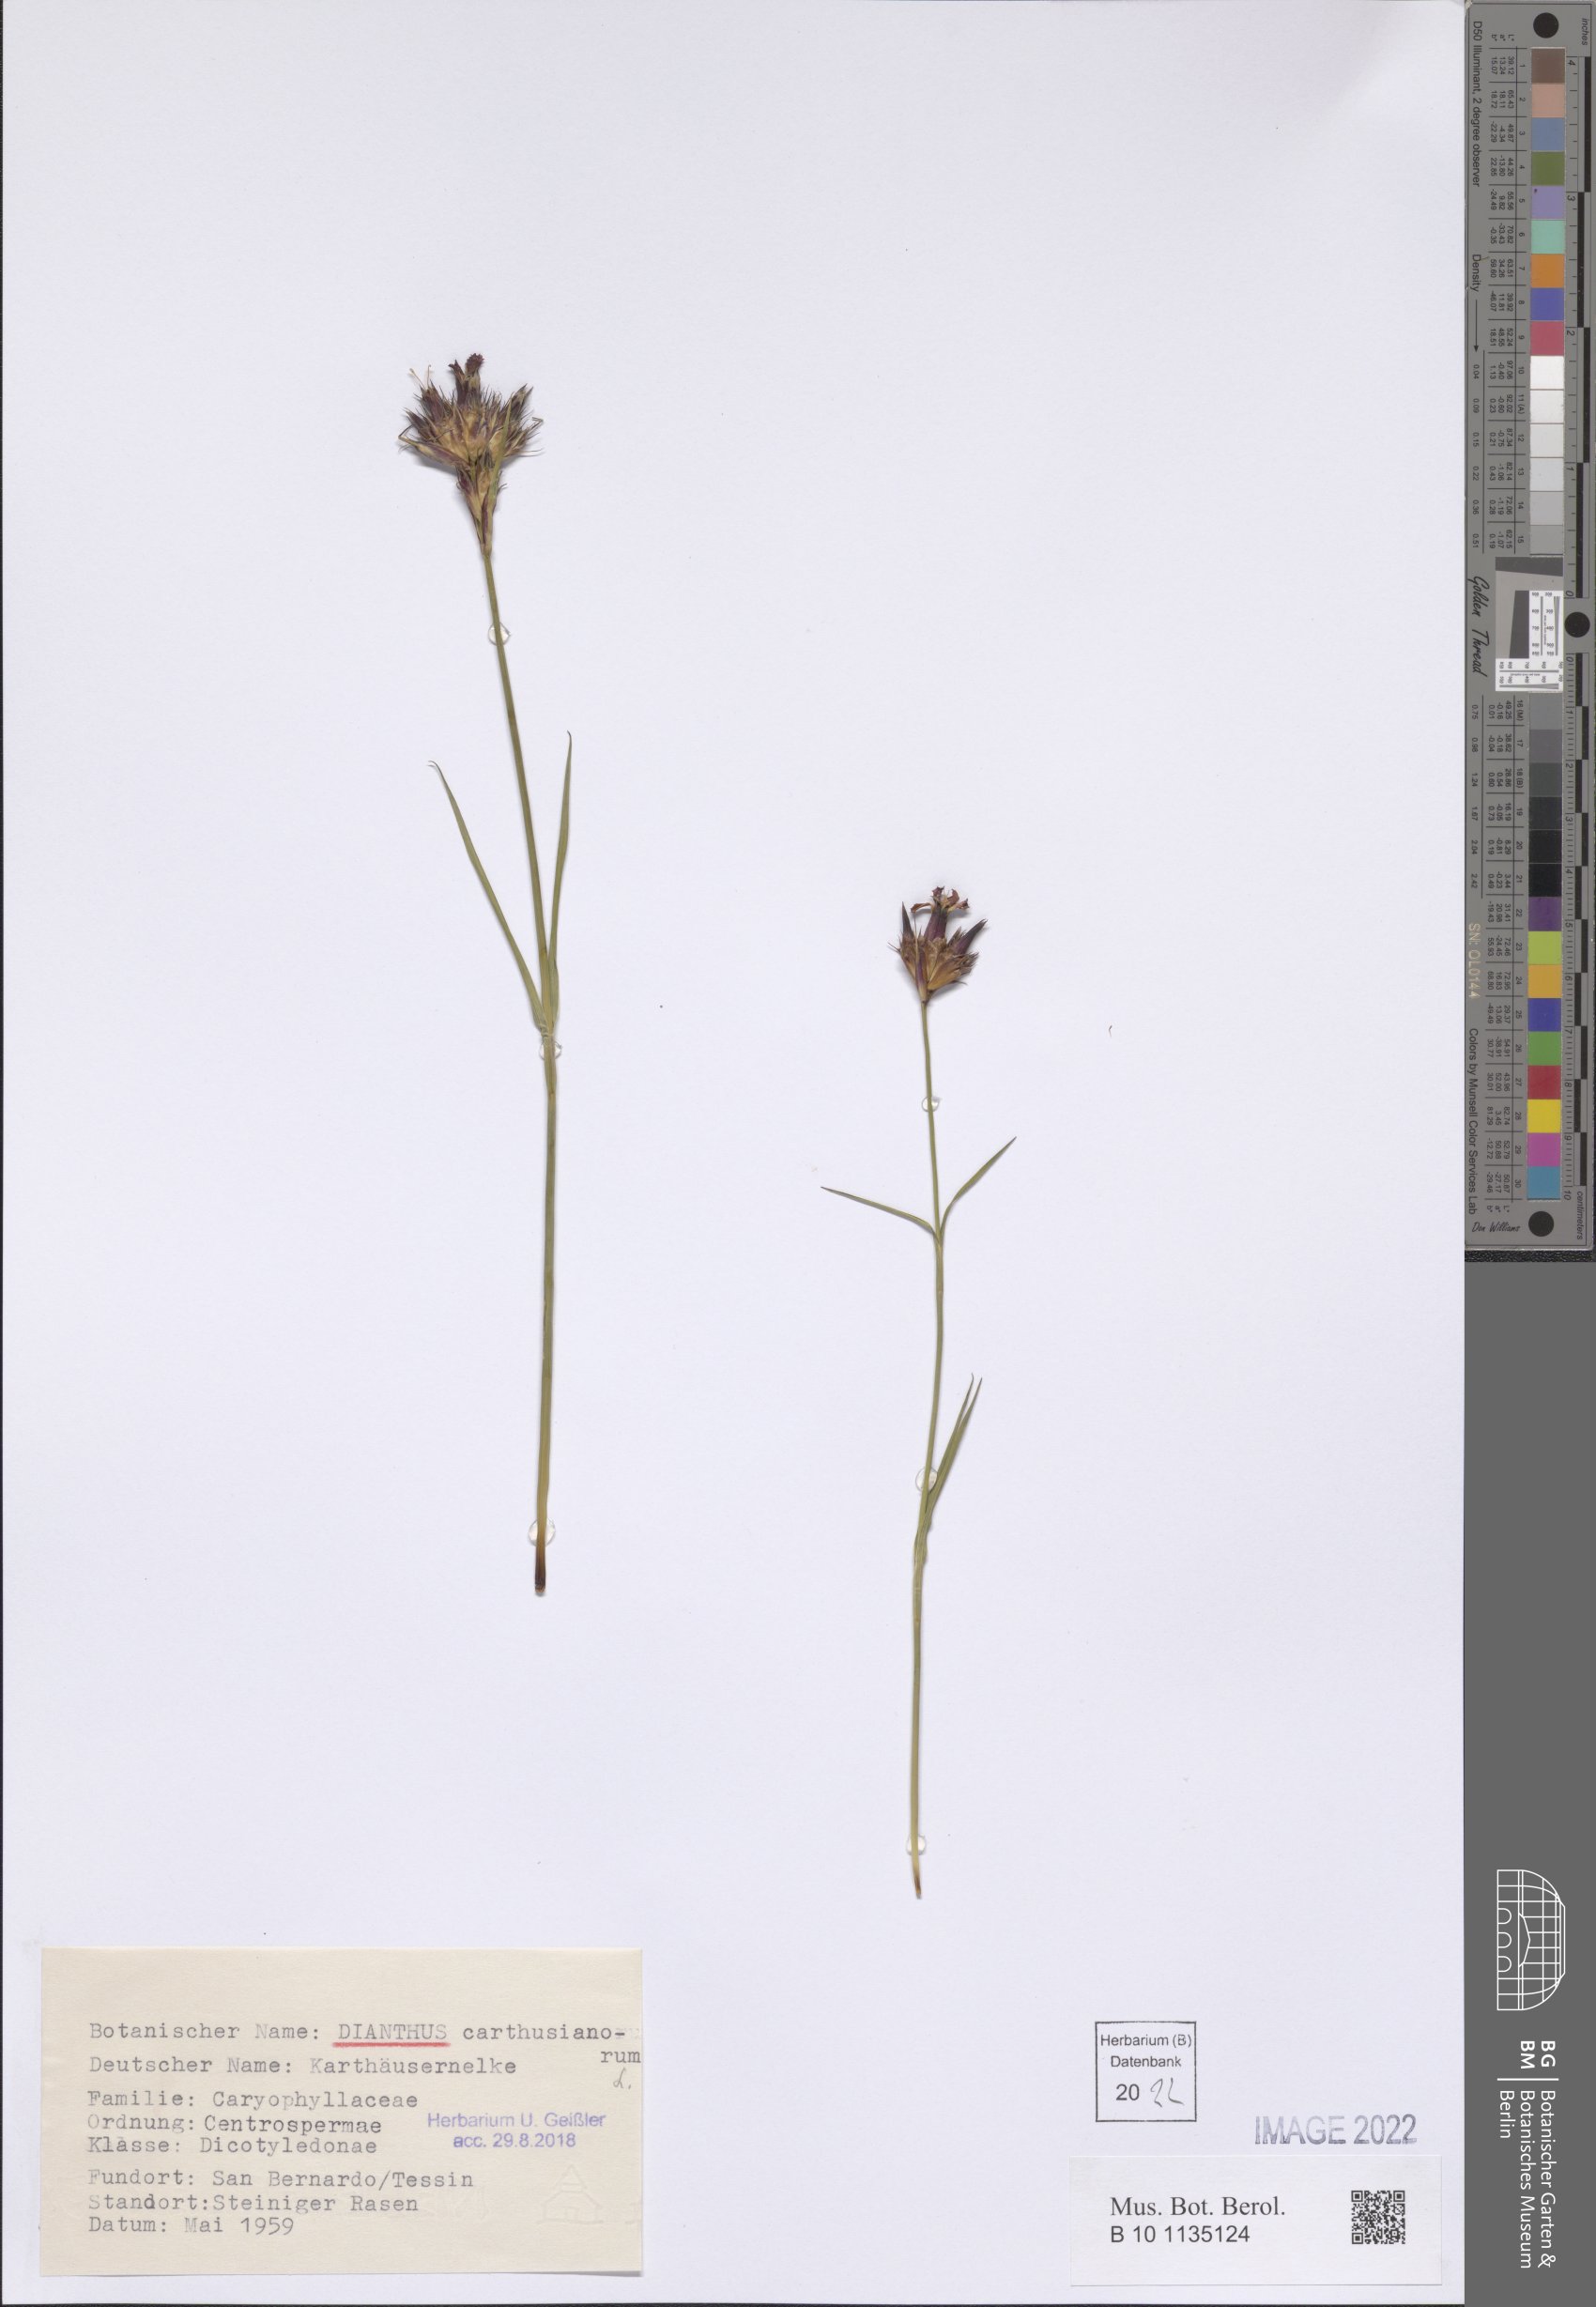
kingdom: Plantae
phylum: Tracheophyta
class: Magnoliopsida
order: Caryophyllales
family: Caryophyllaceae
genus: Dianthus
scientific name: Dianthus carthusianorum
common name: Carthusian pink
